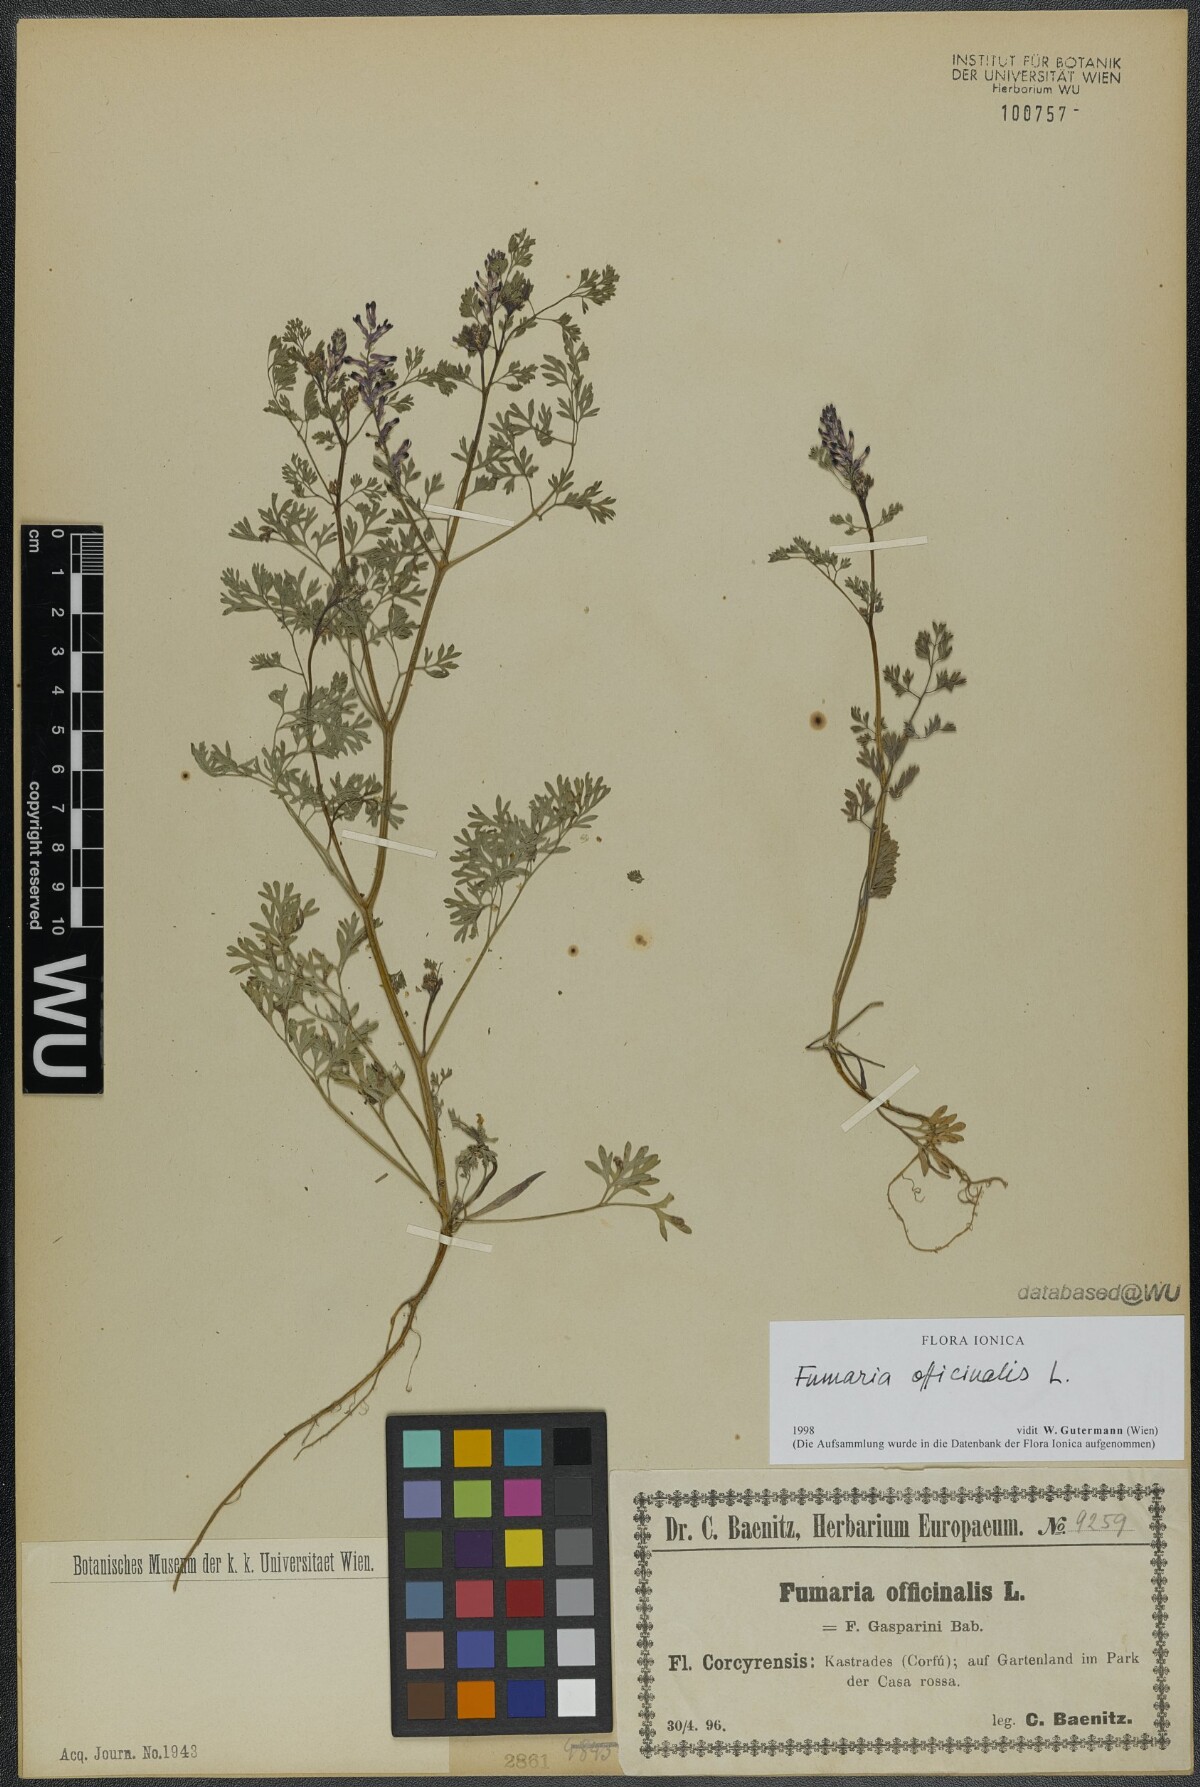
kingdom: Plantae
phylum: Tracheophyta
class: Magnoliopsida
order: Ranunculales
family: Papaveraceae
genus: Fumaria
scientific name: Fumaria officinalis
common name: Common fumitory
